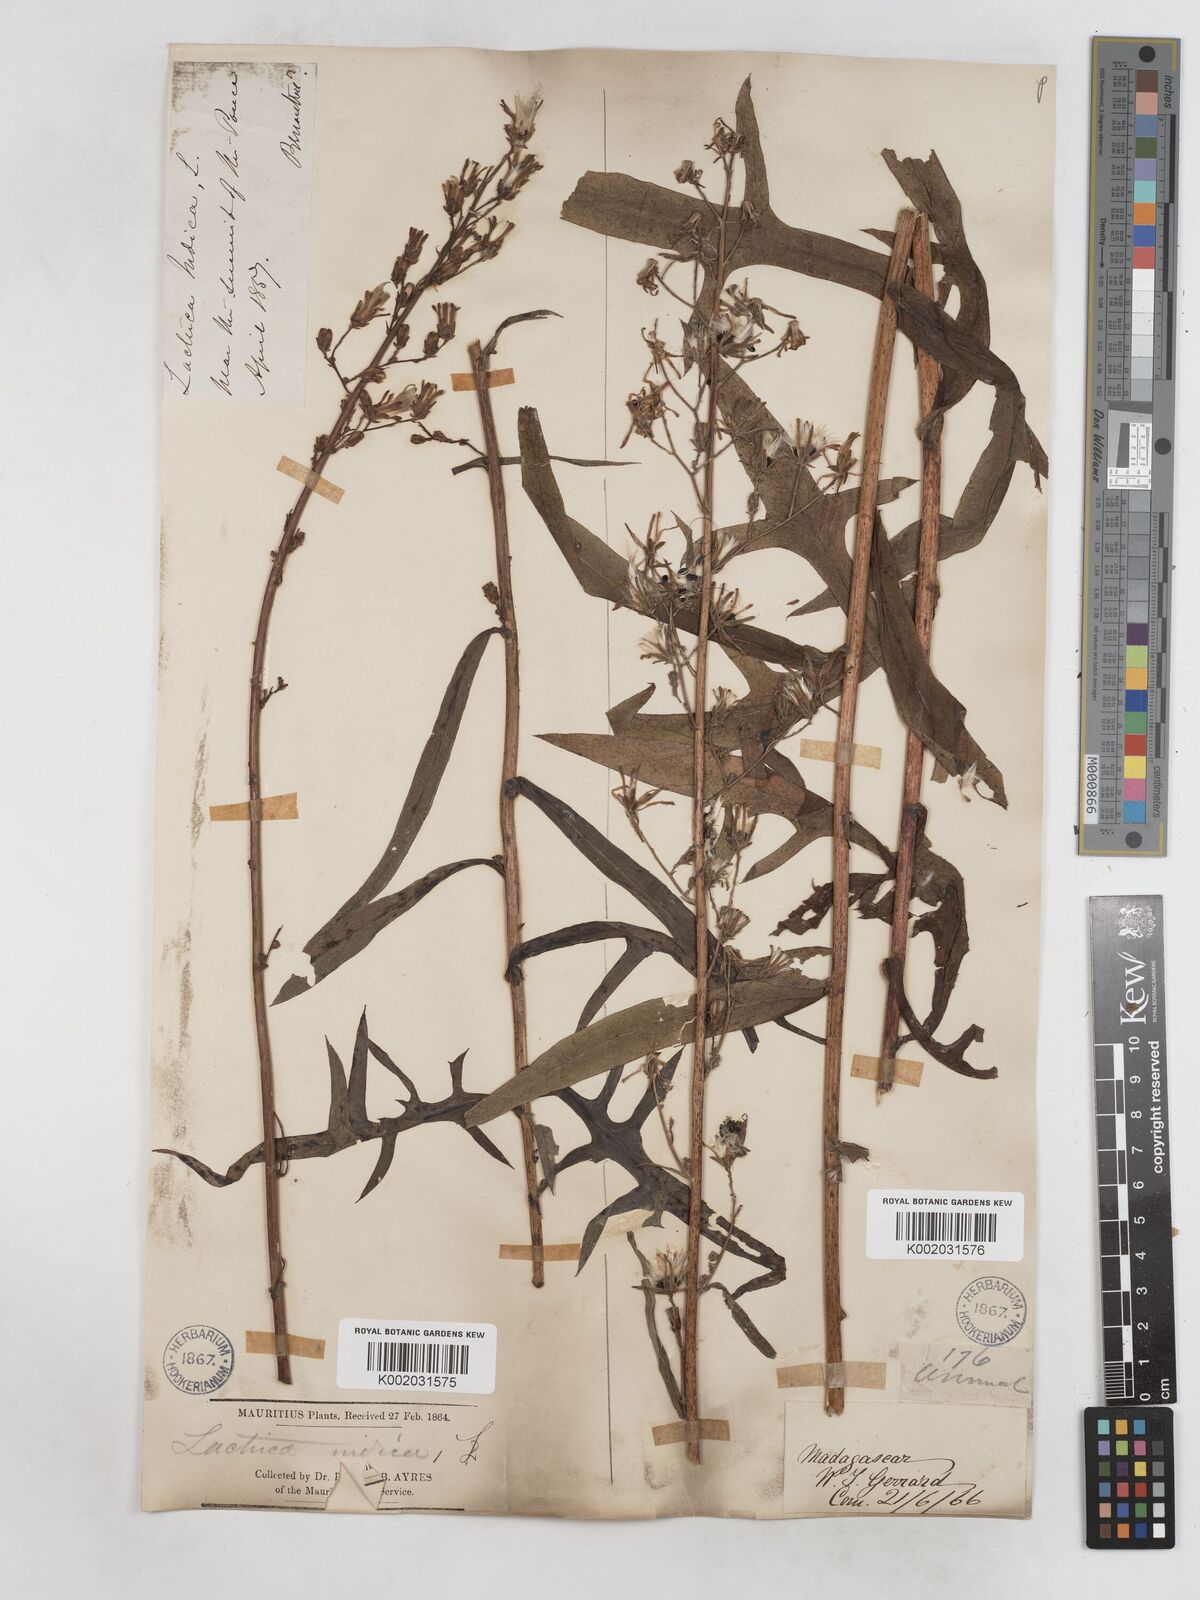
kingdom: Plantae
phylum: Tracheophyta
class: Magnoliopsida
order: Asterales
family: Asteraceae
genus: Lactuca
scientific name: Lactuca
